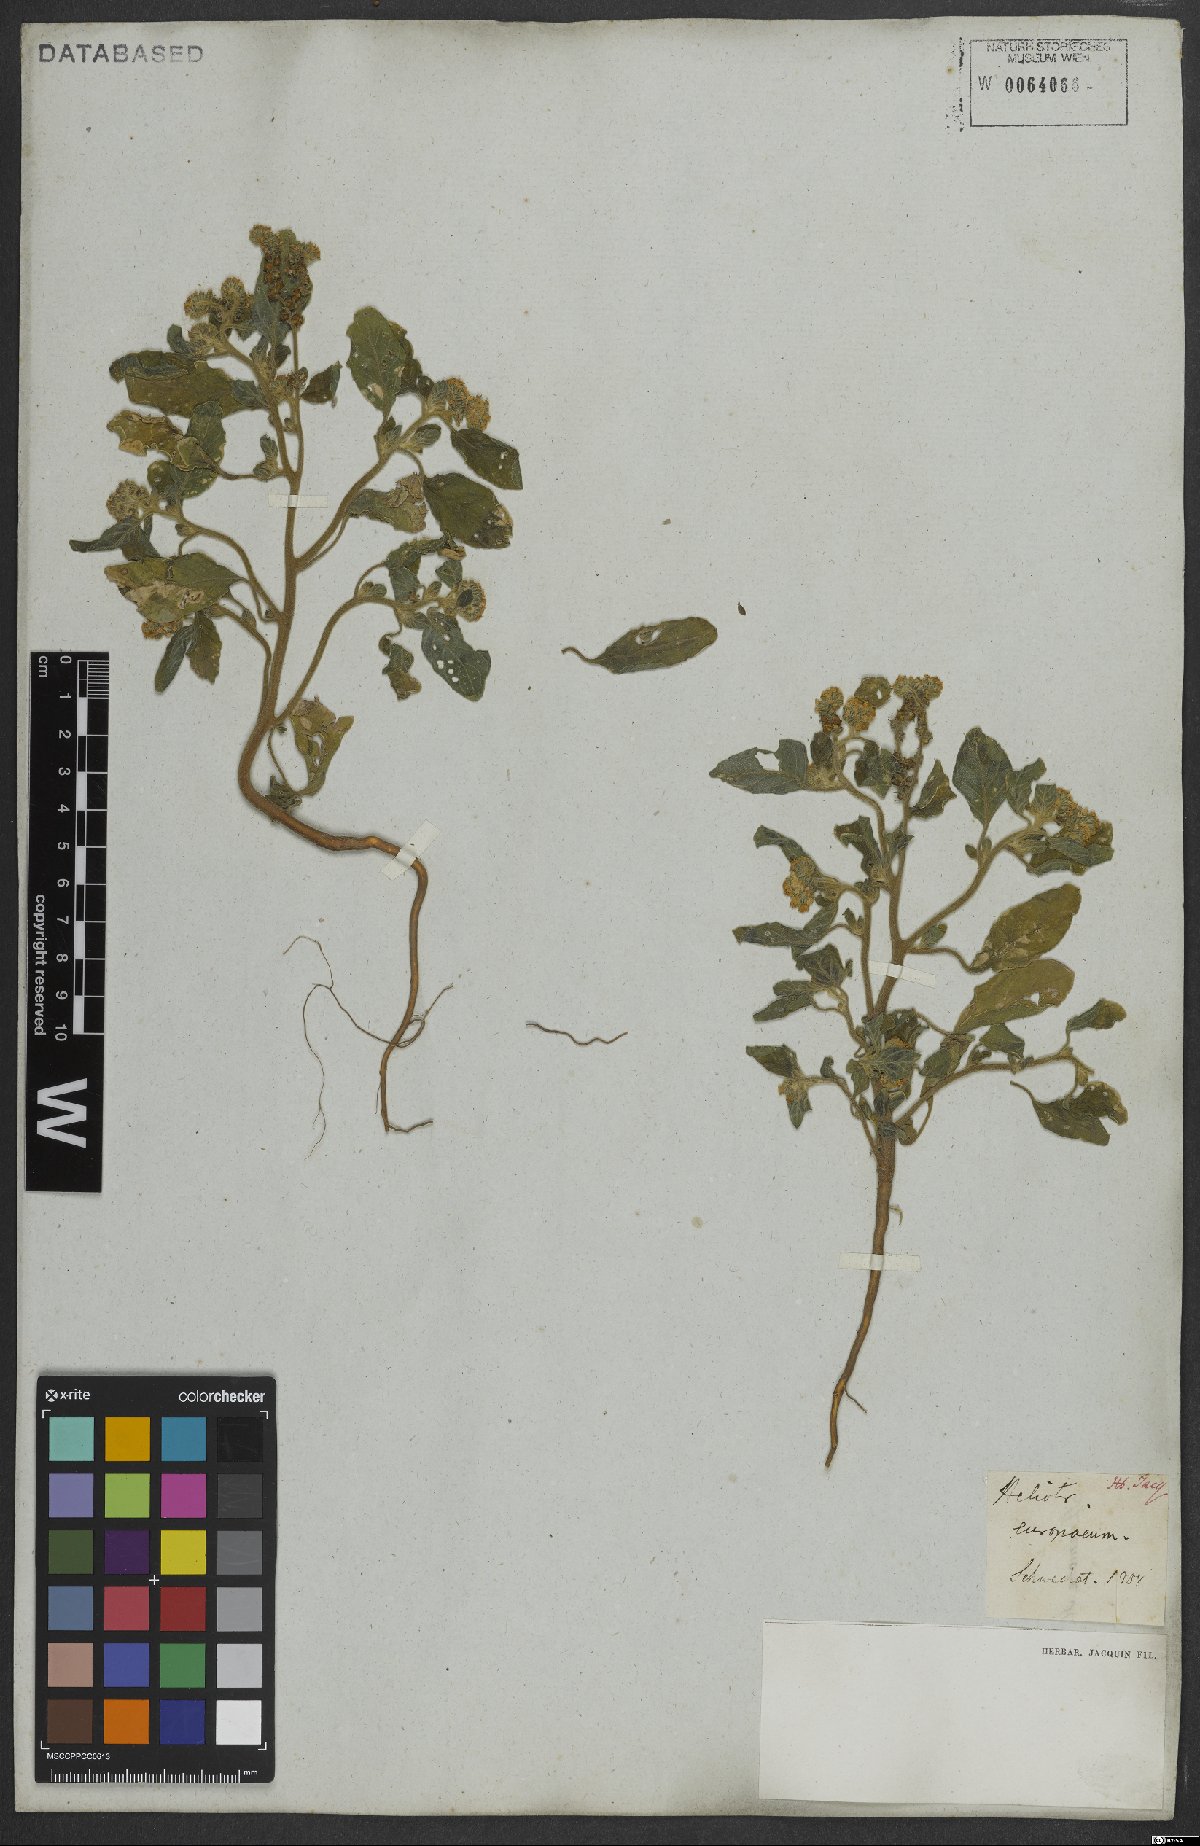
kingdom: Plantae
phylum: Tracheophyta
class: Magnoliopsida
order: Boraginales
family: Heliotropiaceae
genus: Heliotropium
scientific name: Heliotropium europaeum
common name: European heliotrope
